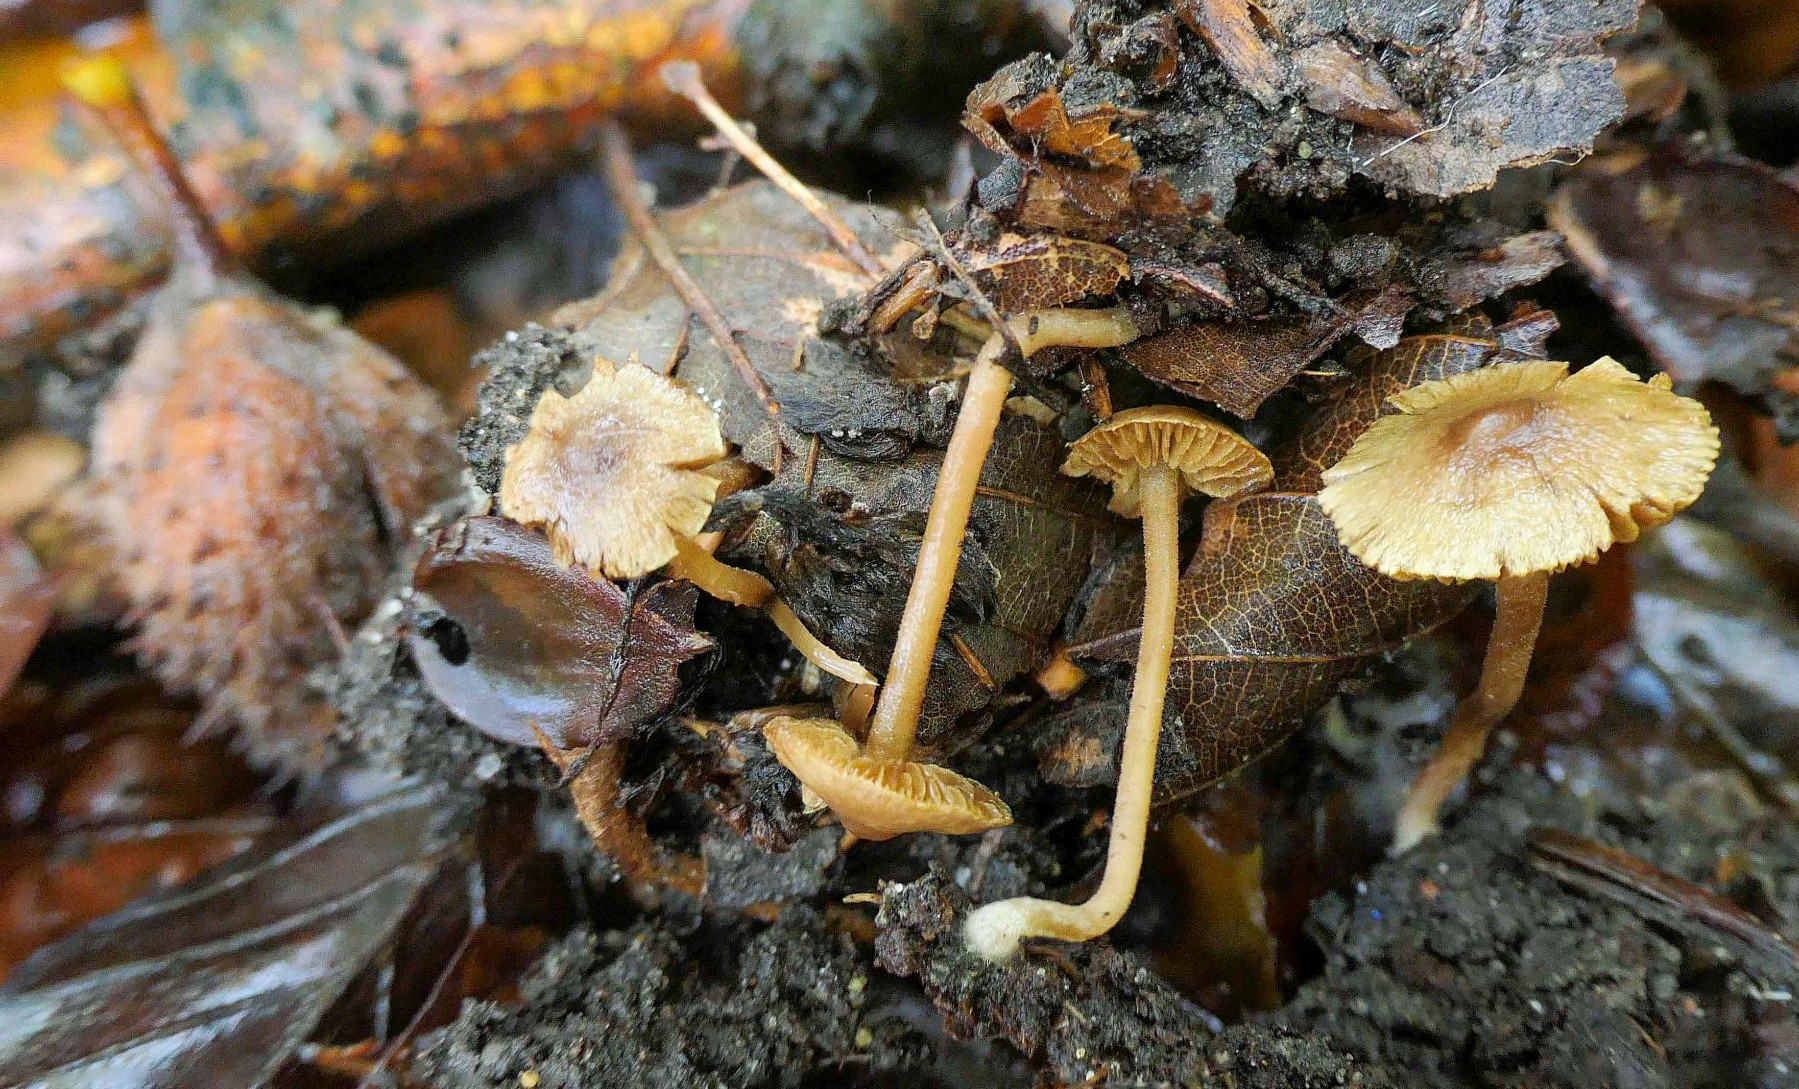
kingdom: Fungi
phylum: Basidiomycota
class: Agaricomycetes
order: Agaricales
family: Inocybaceae
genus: Inocybe
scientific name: Inocybe
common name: trævlhat
